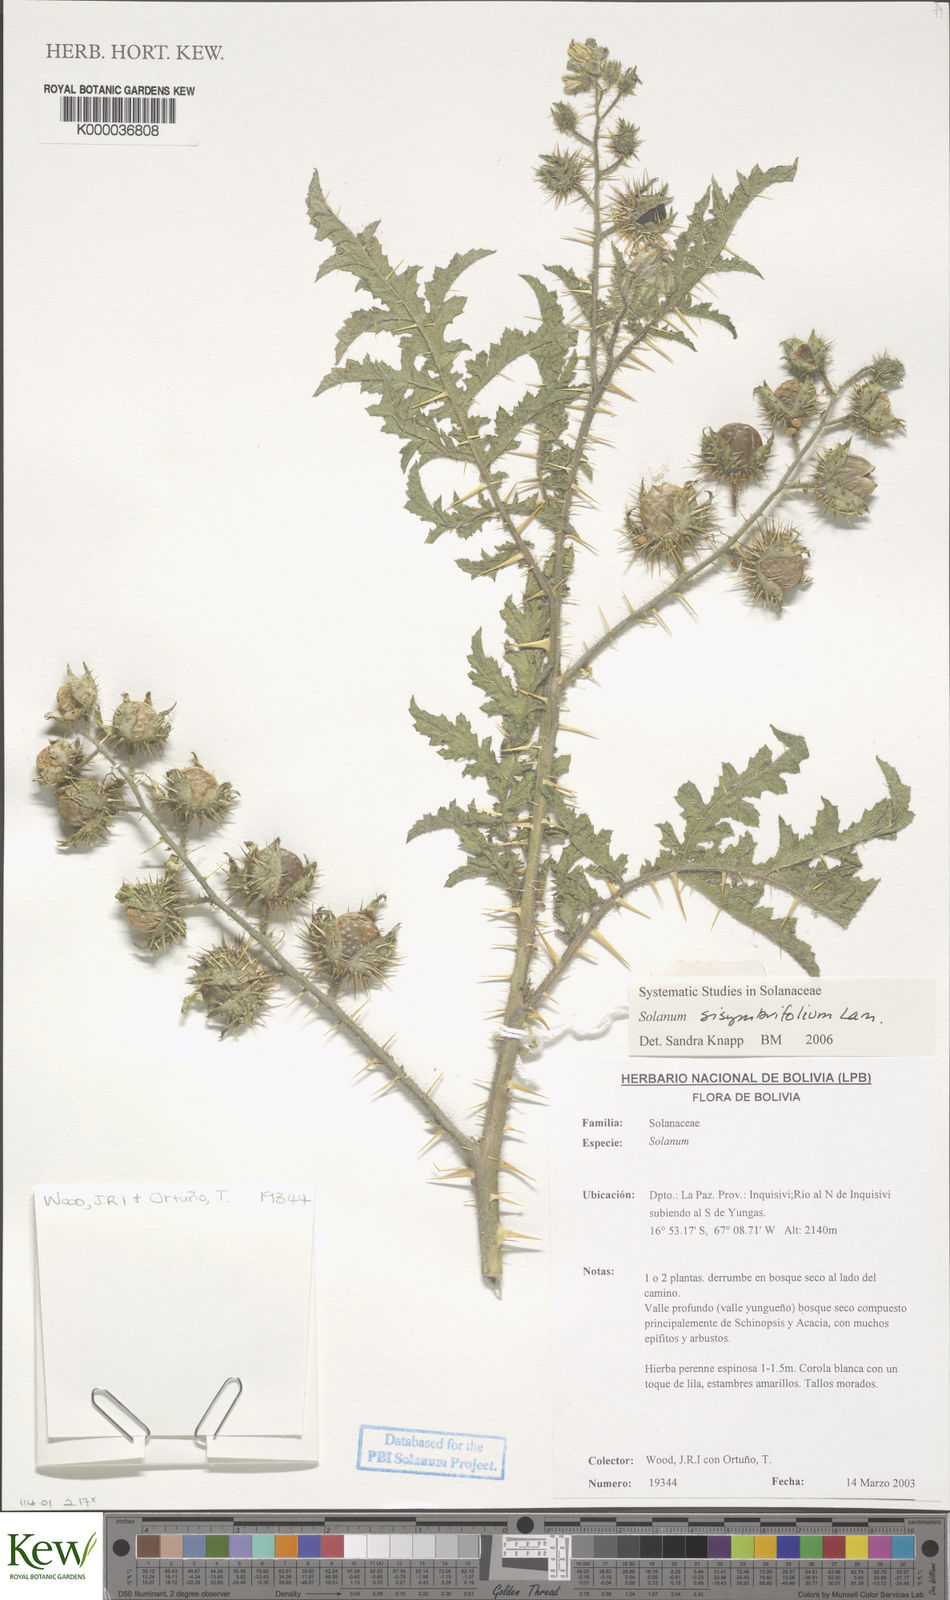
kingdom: Plantae
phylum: Tracheophyta
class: Magnoliopsida
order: Solanales
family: Solanaceae
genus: Solanum
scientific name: Solanum sisymbriifolium
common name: Red buffalo-bur
